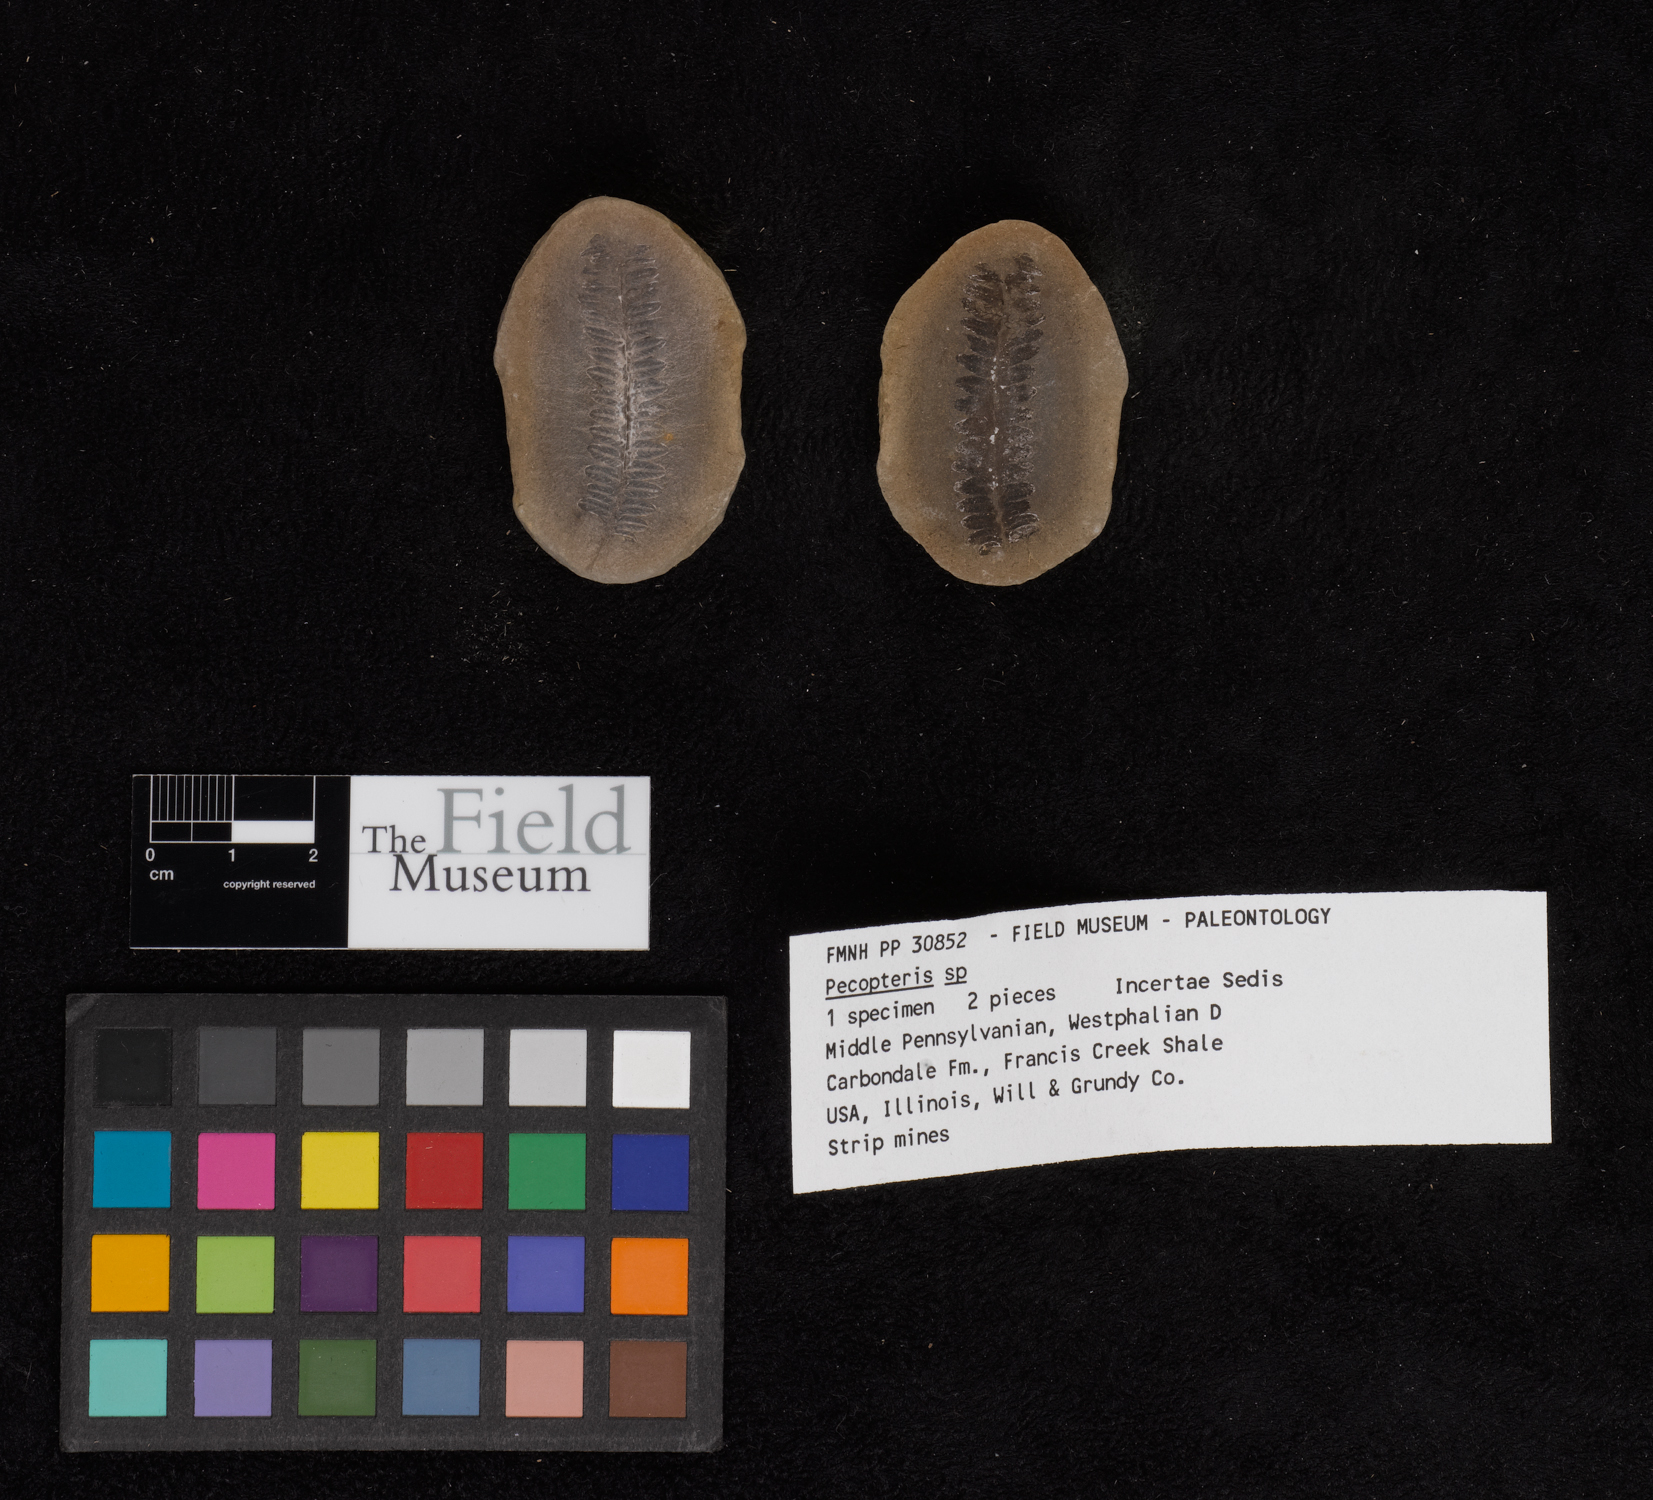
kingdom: Plantae
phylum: Tracheophyta
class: Polypodiopsida
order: Marattiales
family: Asterothecaceae
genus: Pecopteris
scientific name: Pecopteris
